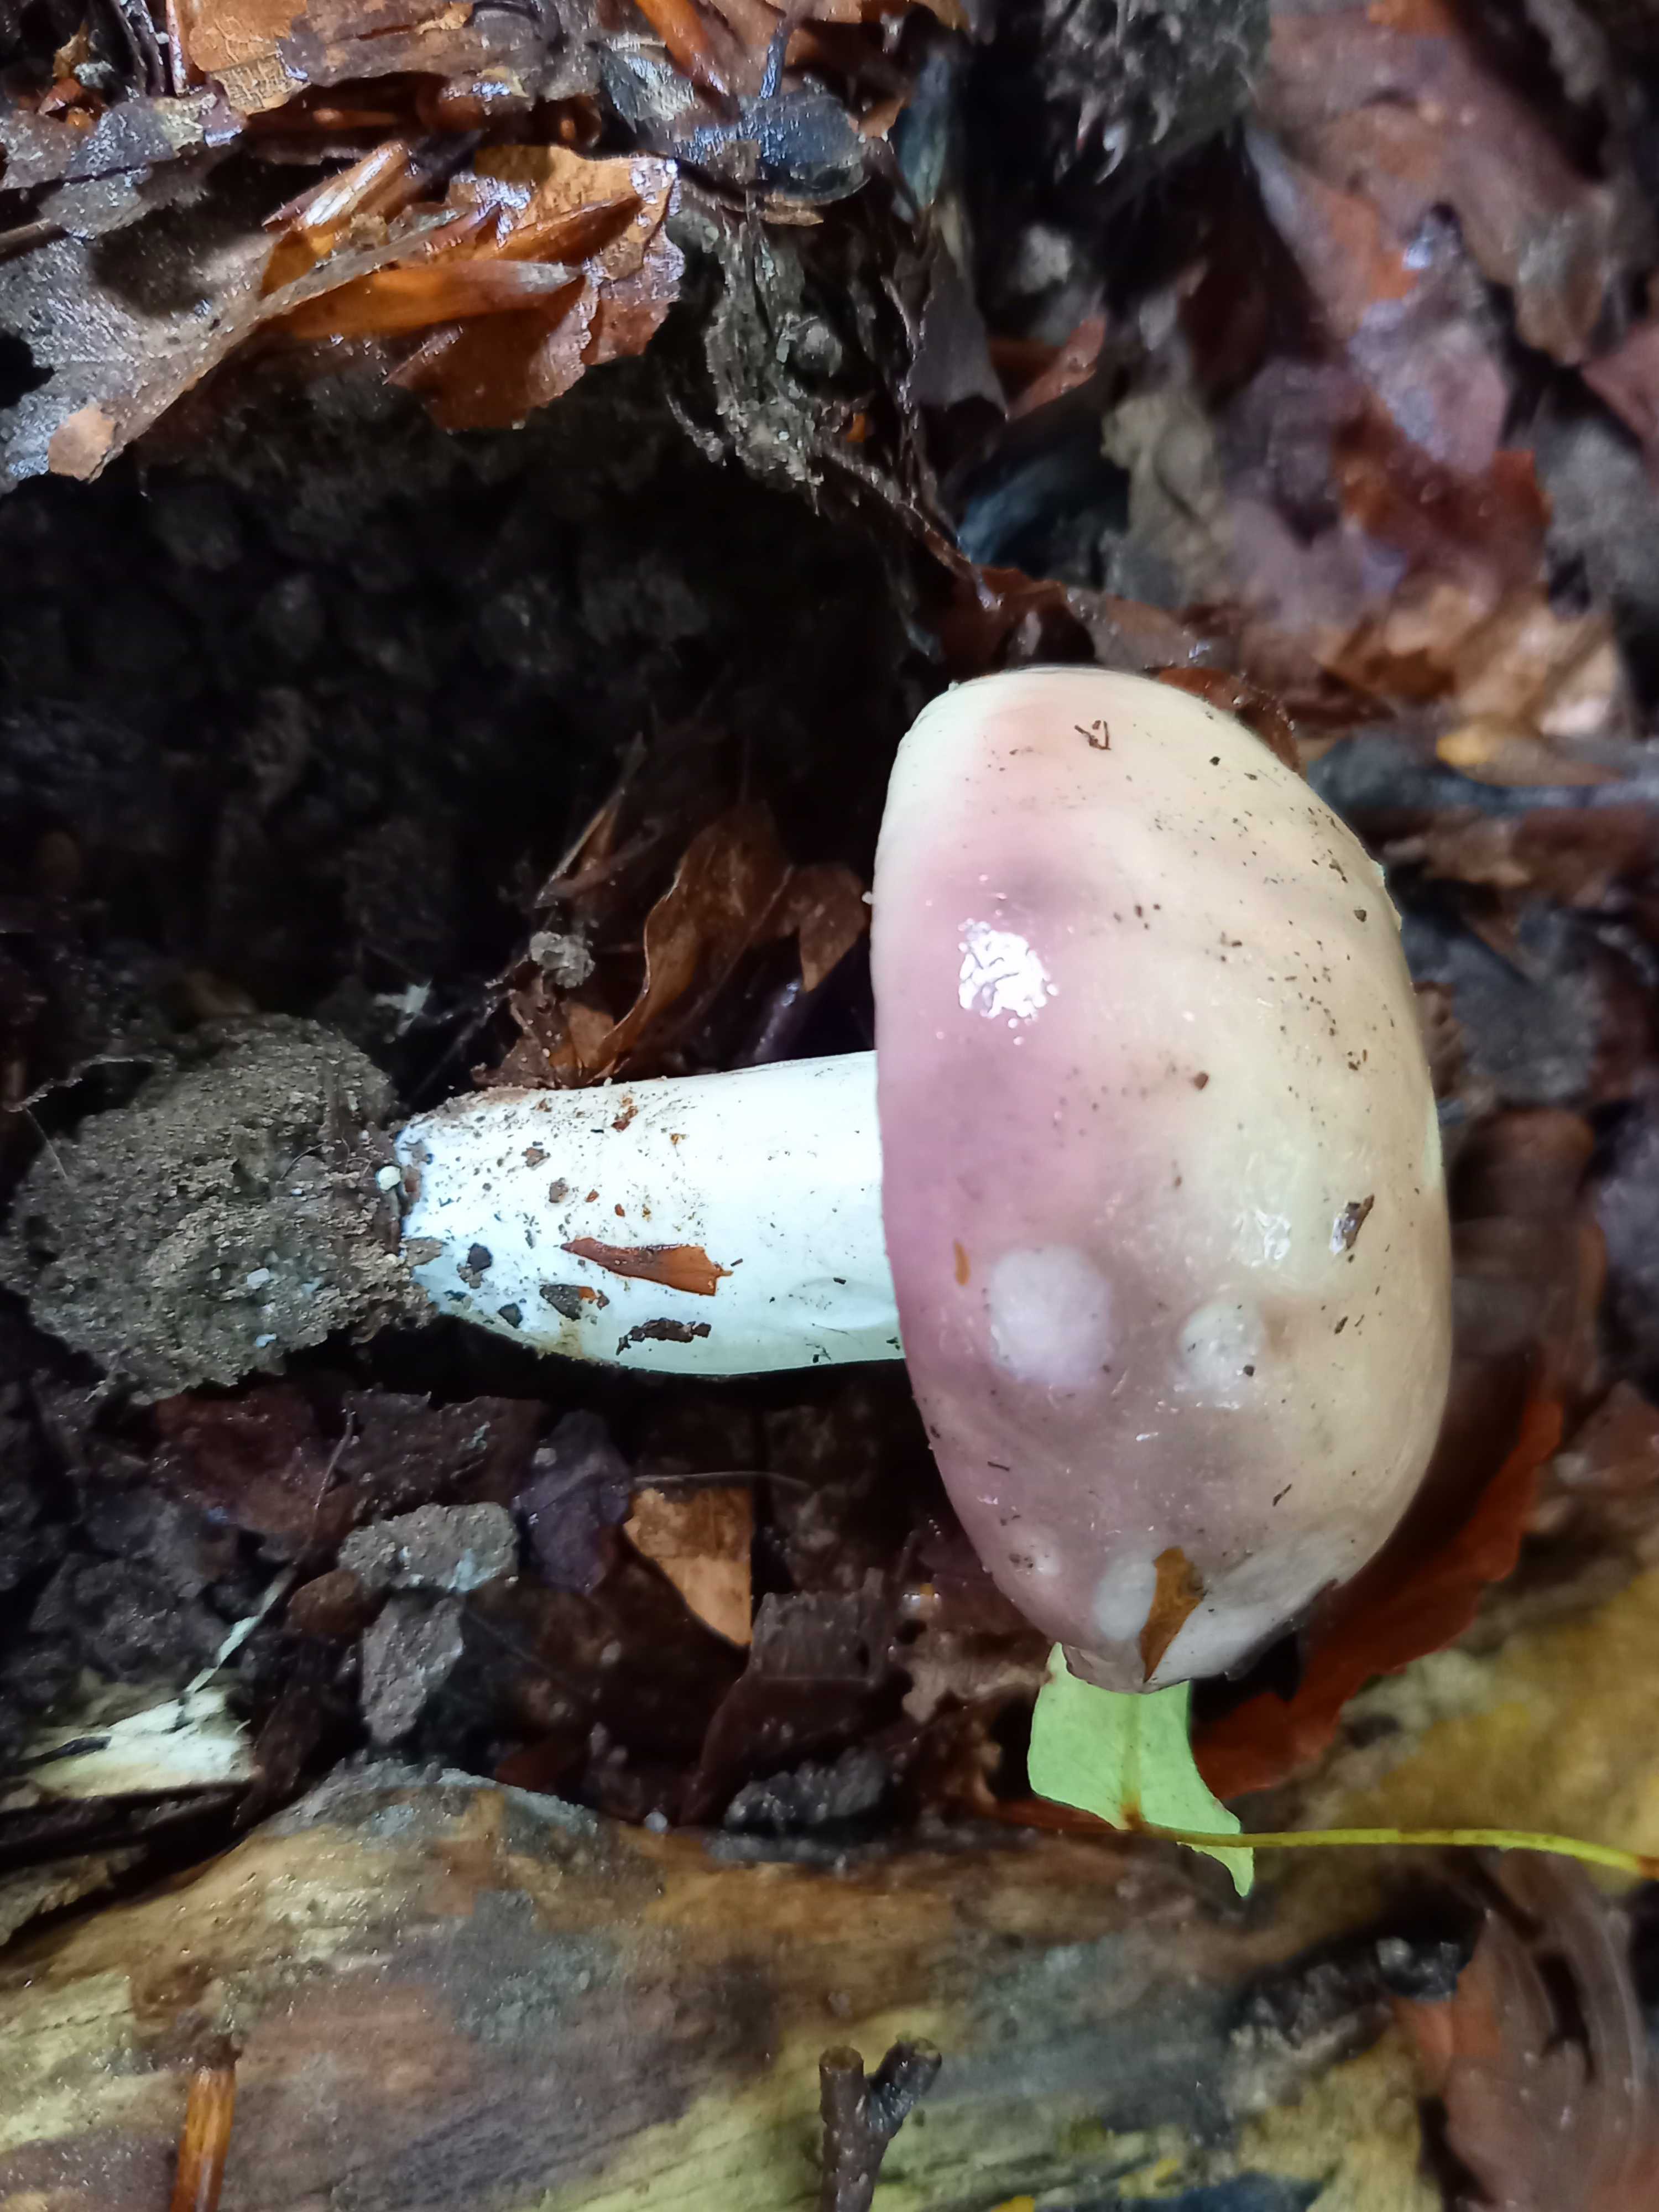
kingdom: Fungi
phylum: Basidiomycota
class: Agaricomycetes
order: Russulales
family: Russulaceae
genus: Russula
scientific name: Russula cyanoxantha
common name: broget skørhat
